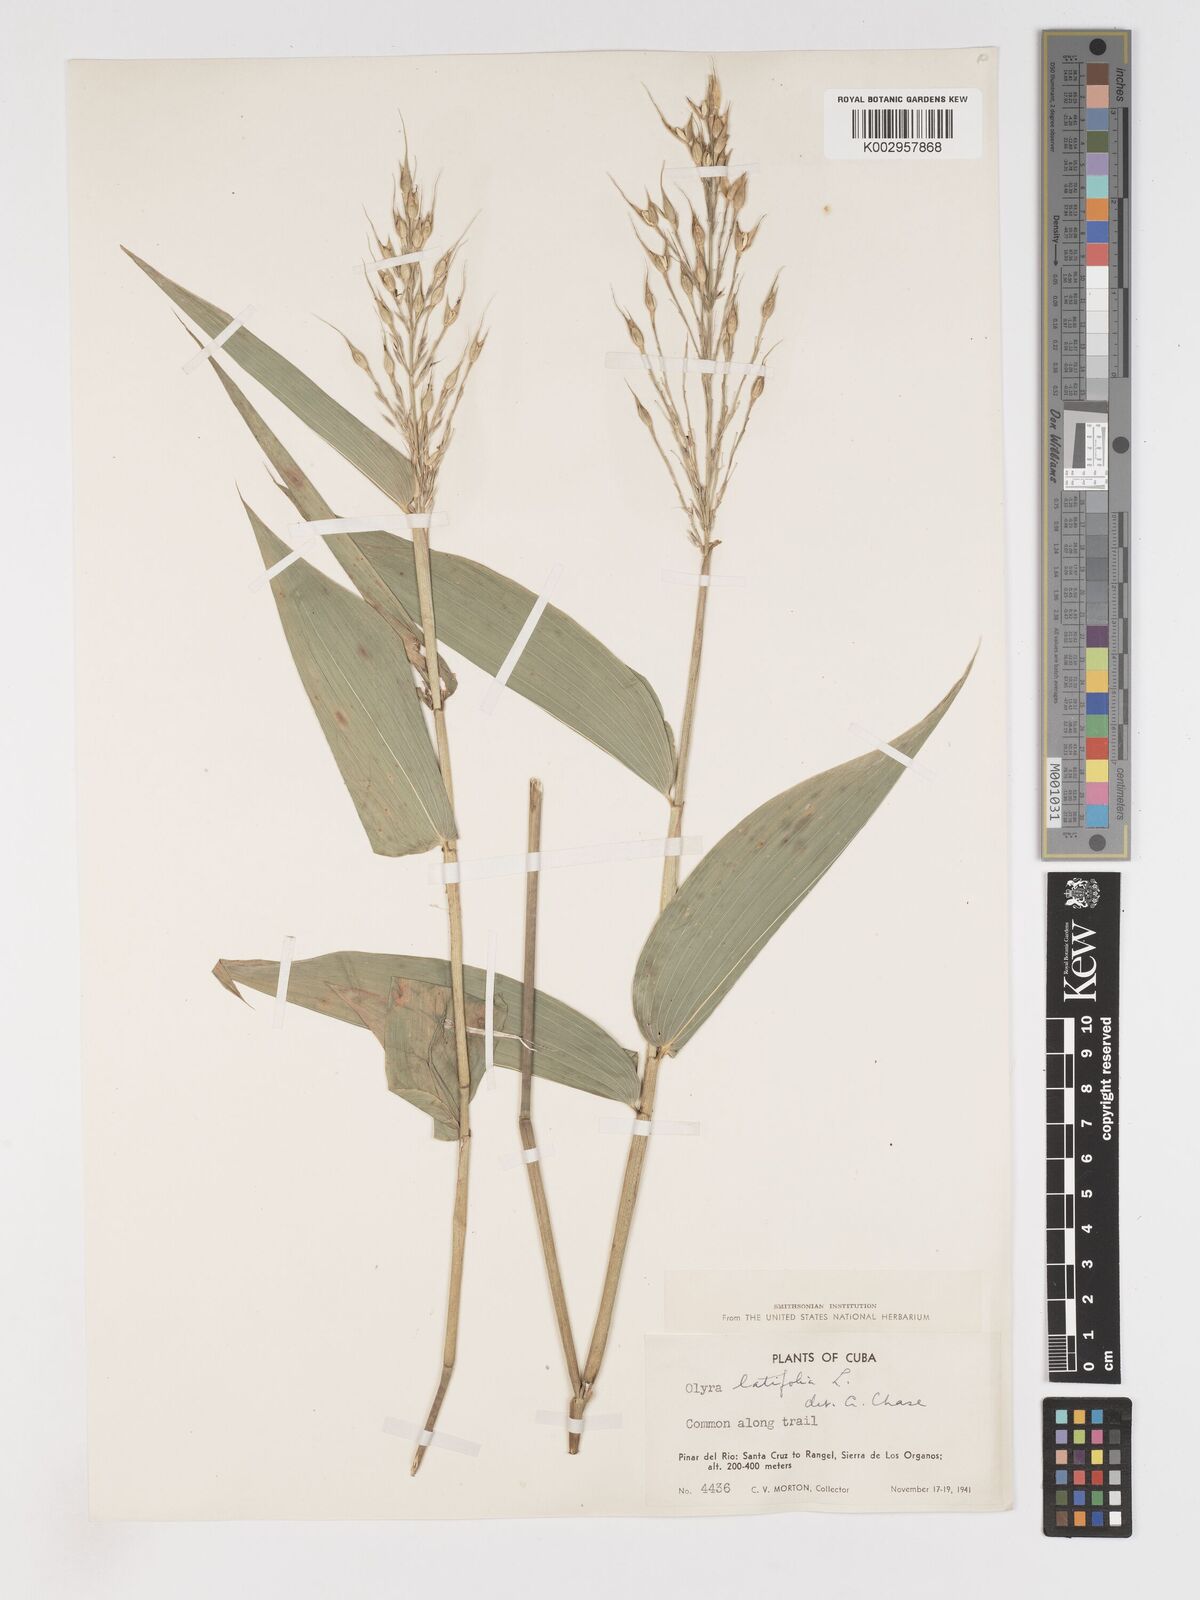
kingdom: Plantae
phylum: Tracheophyta
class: Liliopsida
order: Poales
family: Poaceae
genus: Olyra
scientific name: Olyra latifolia
